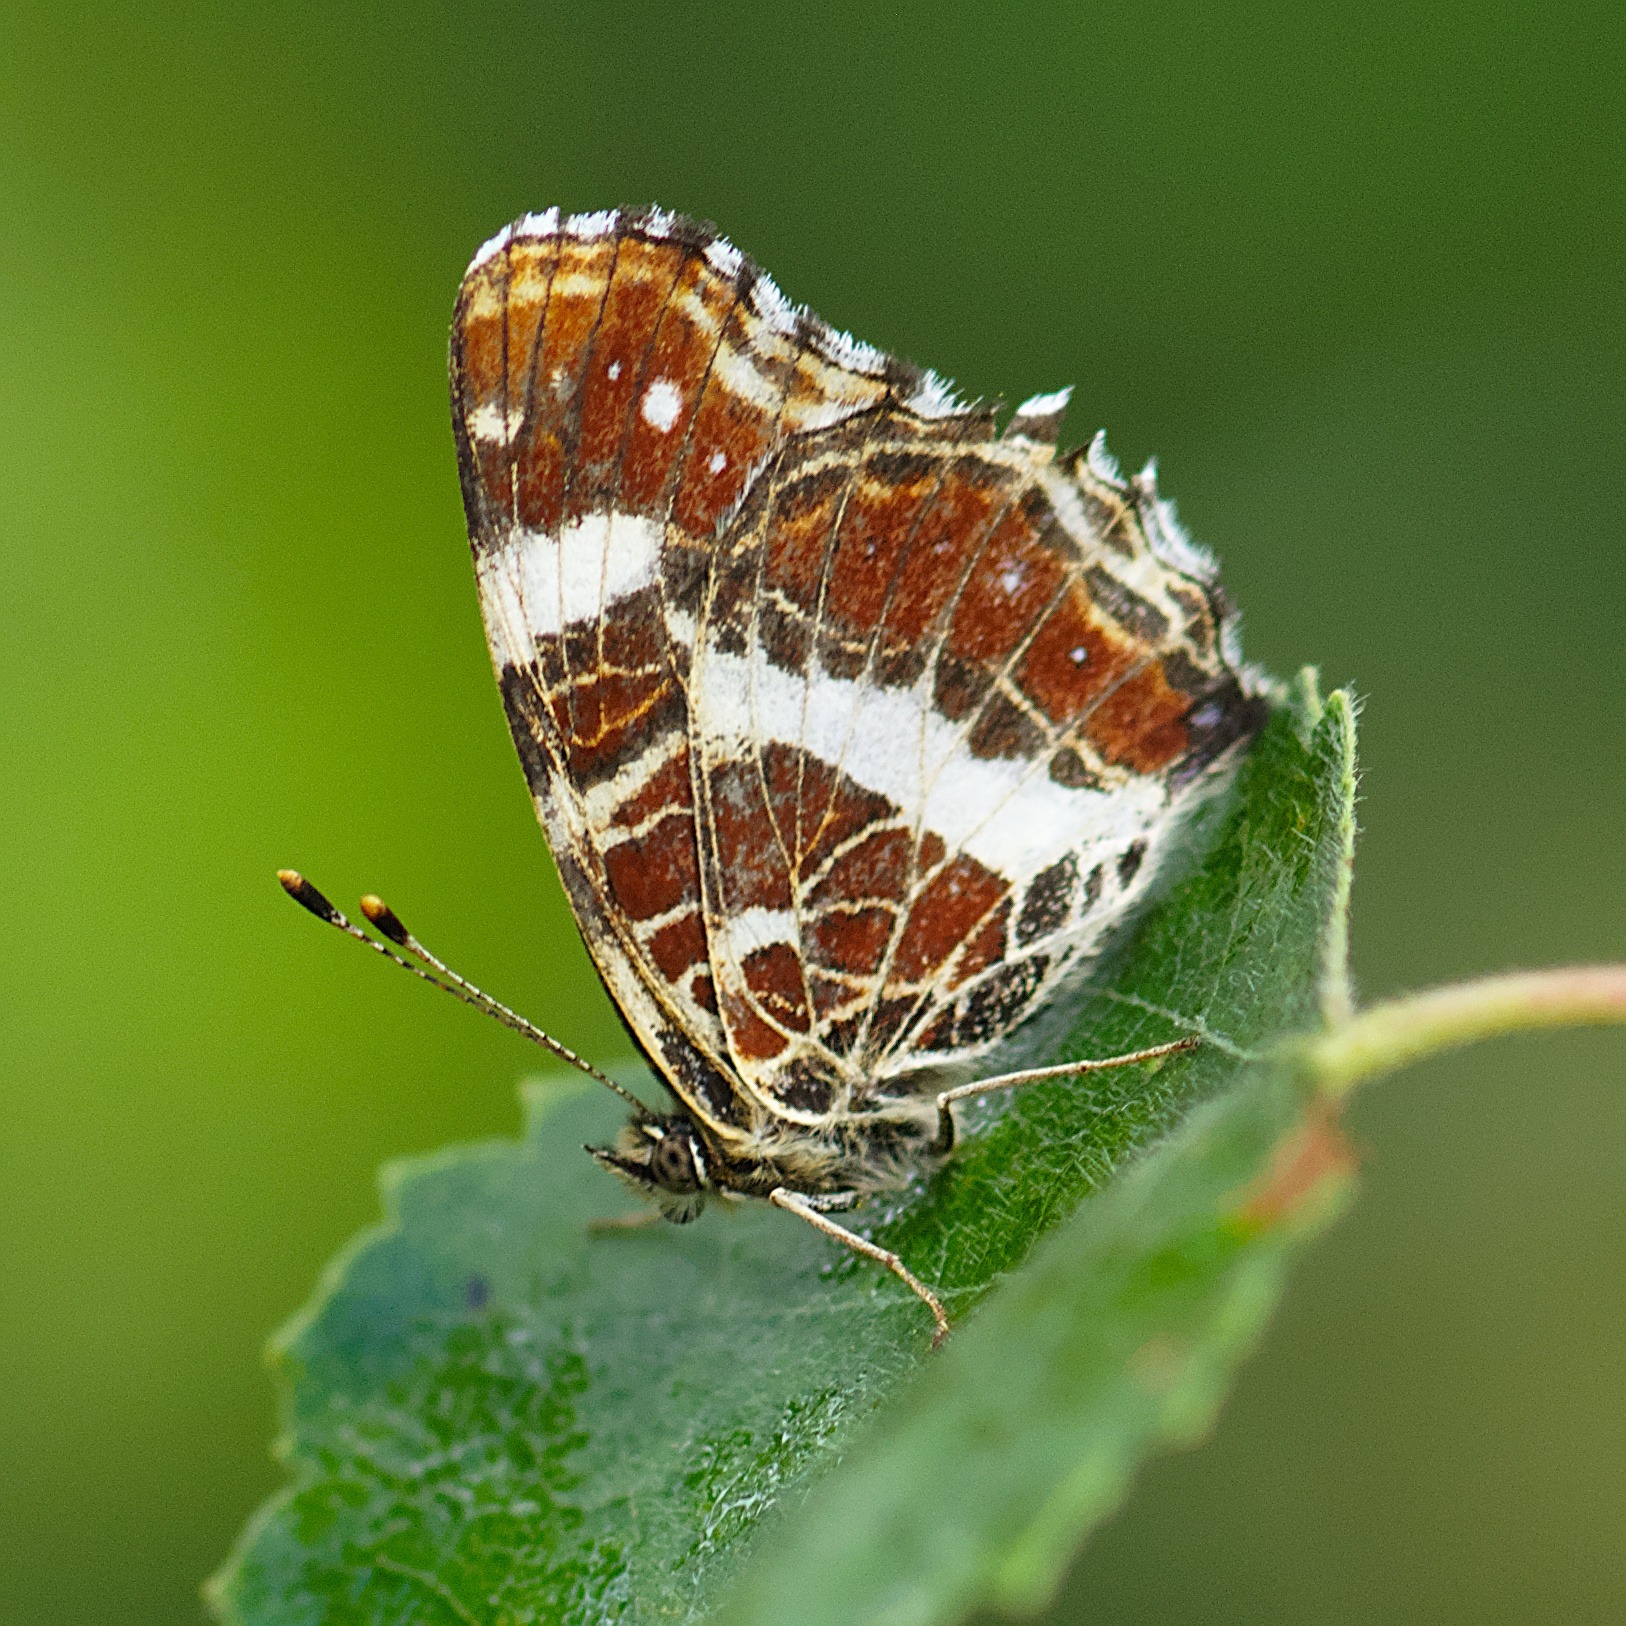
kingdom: Animalia
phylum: Arthropoda
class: Insecta
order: Lepidoptera
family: Nymphalidae
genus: Araschnia
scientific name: Araschnia levana
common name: Nældesommerfugl
